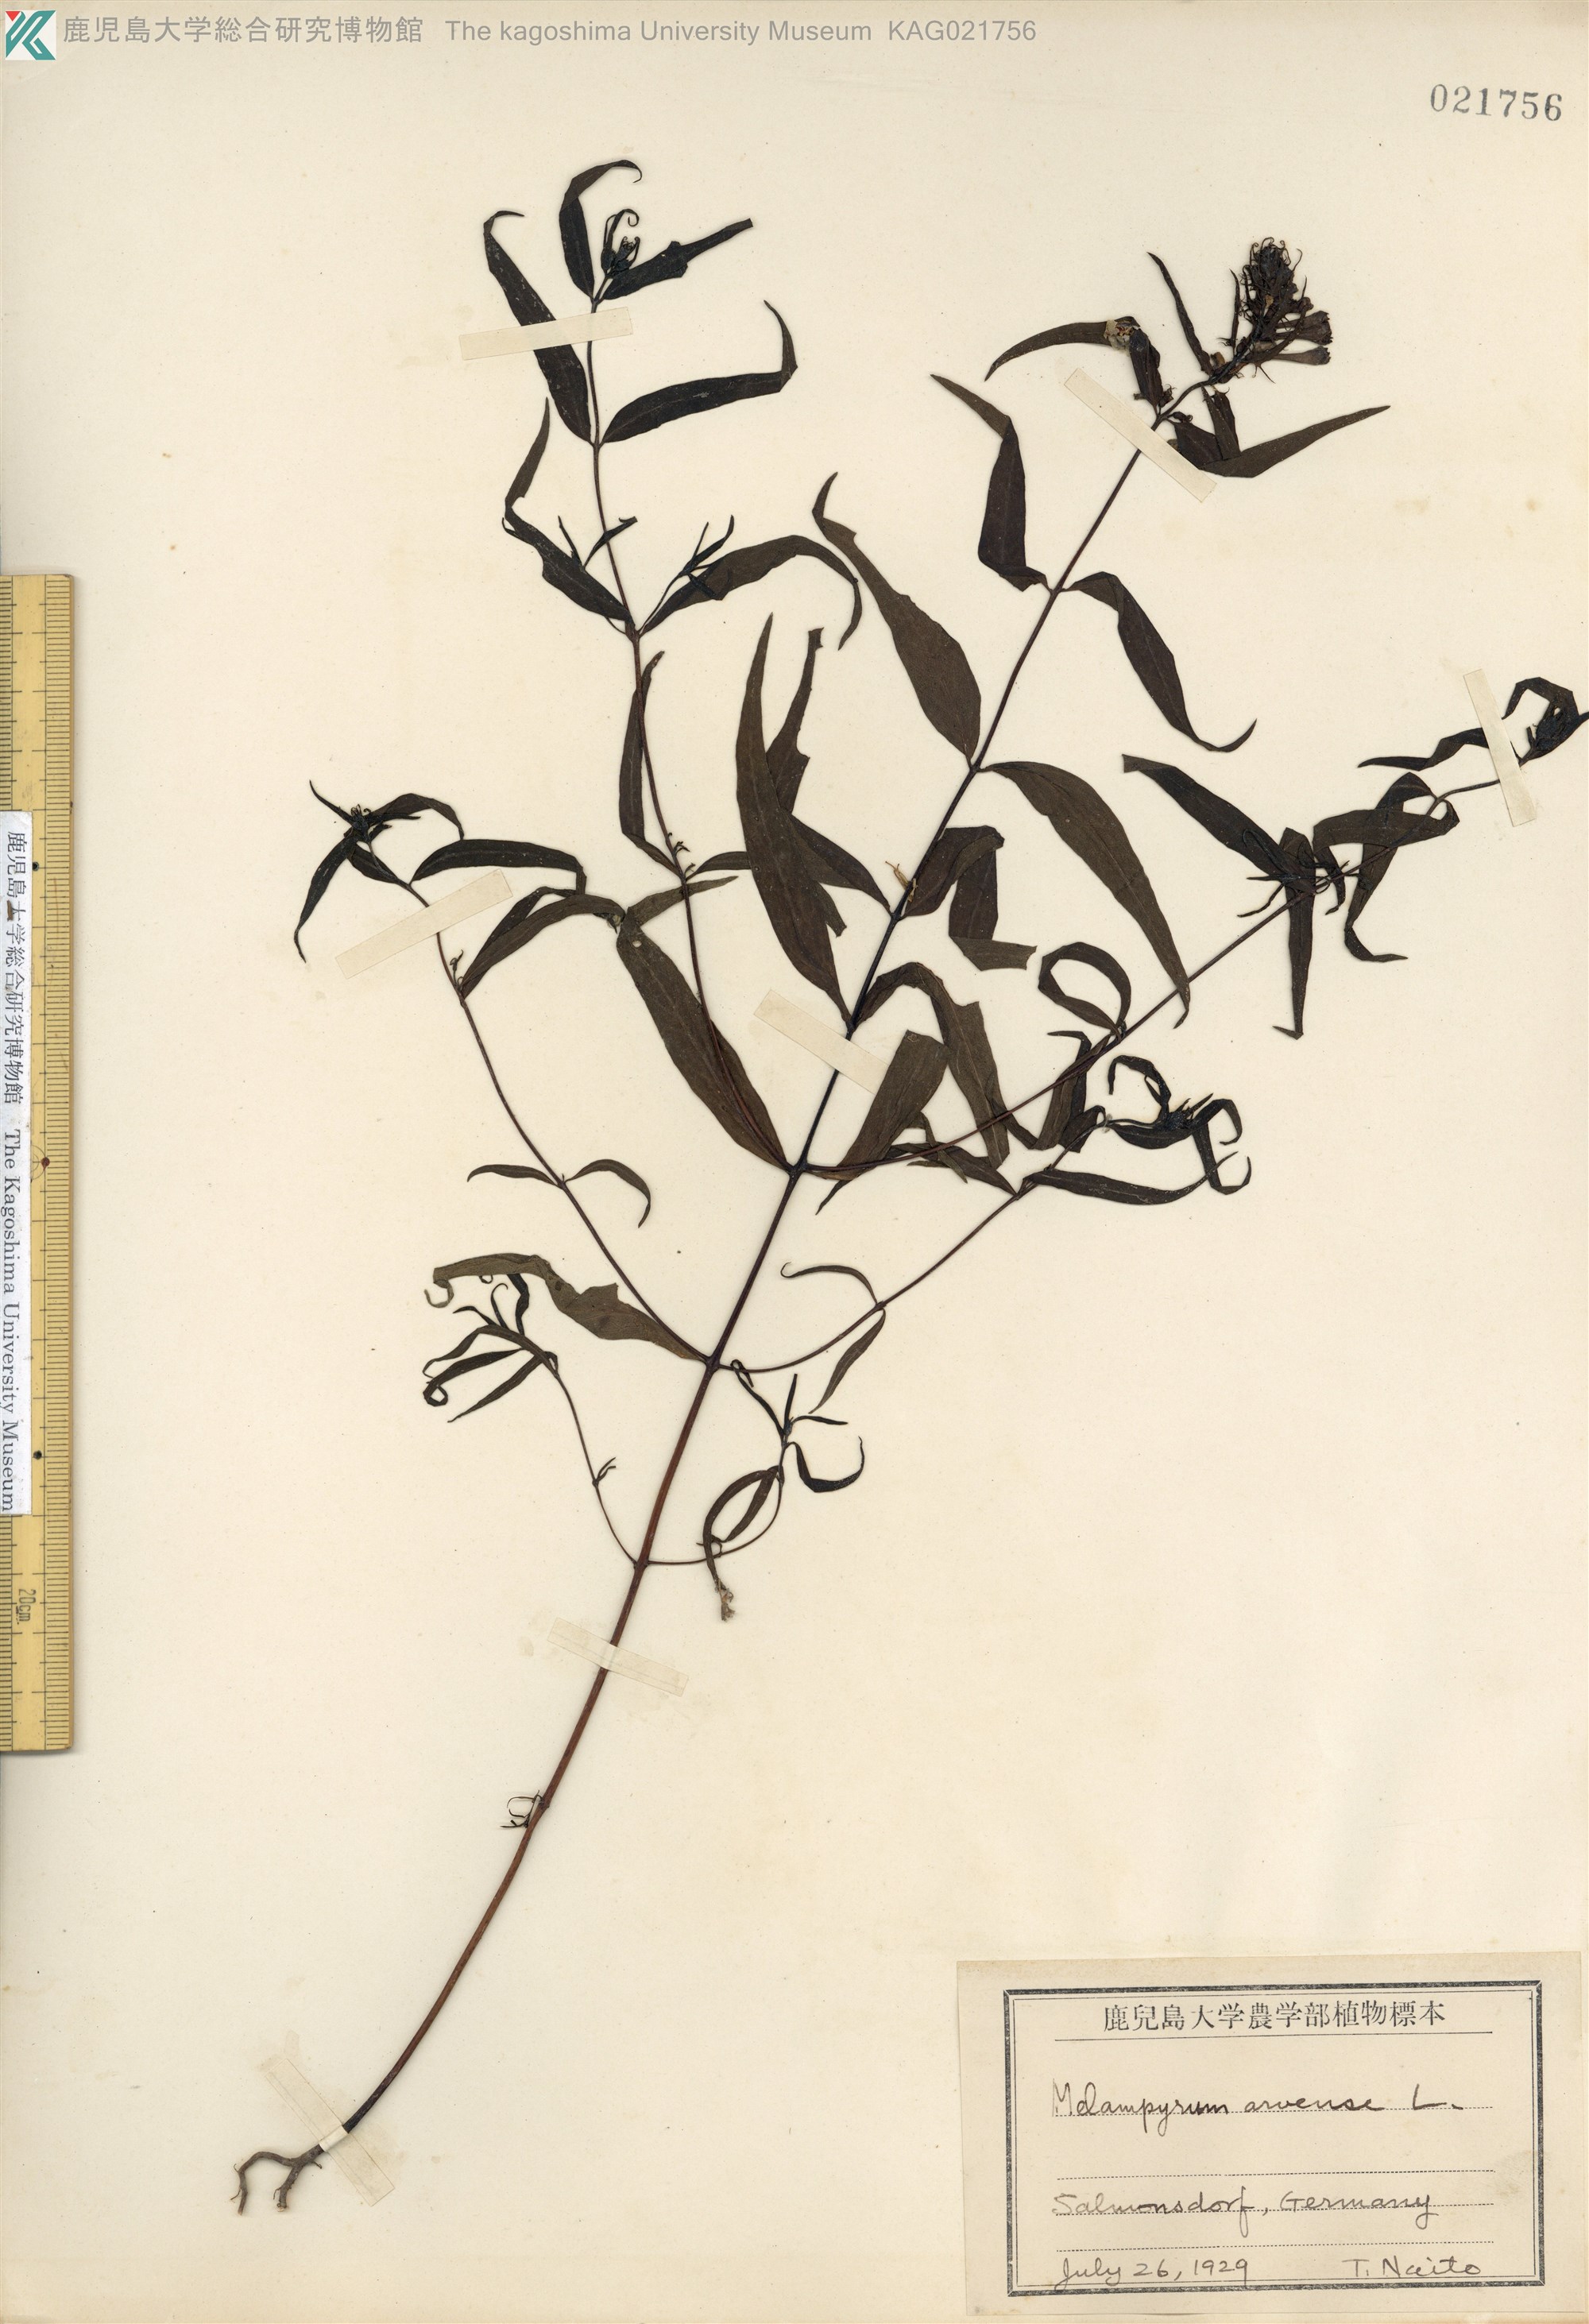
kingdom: Plantae
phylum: Tracheophyta
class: Magnoliopsida
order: Lamiales
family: Orobanchaceae
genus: Melampyrum
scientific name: Melampyrum arvense
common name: Field cow-wheat
